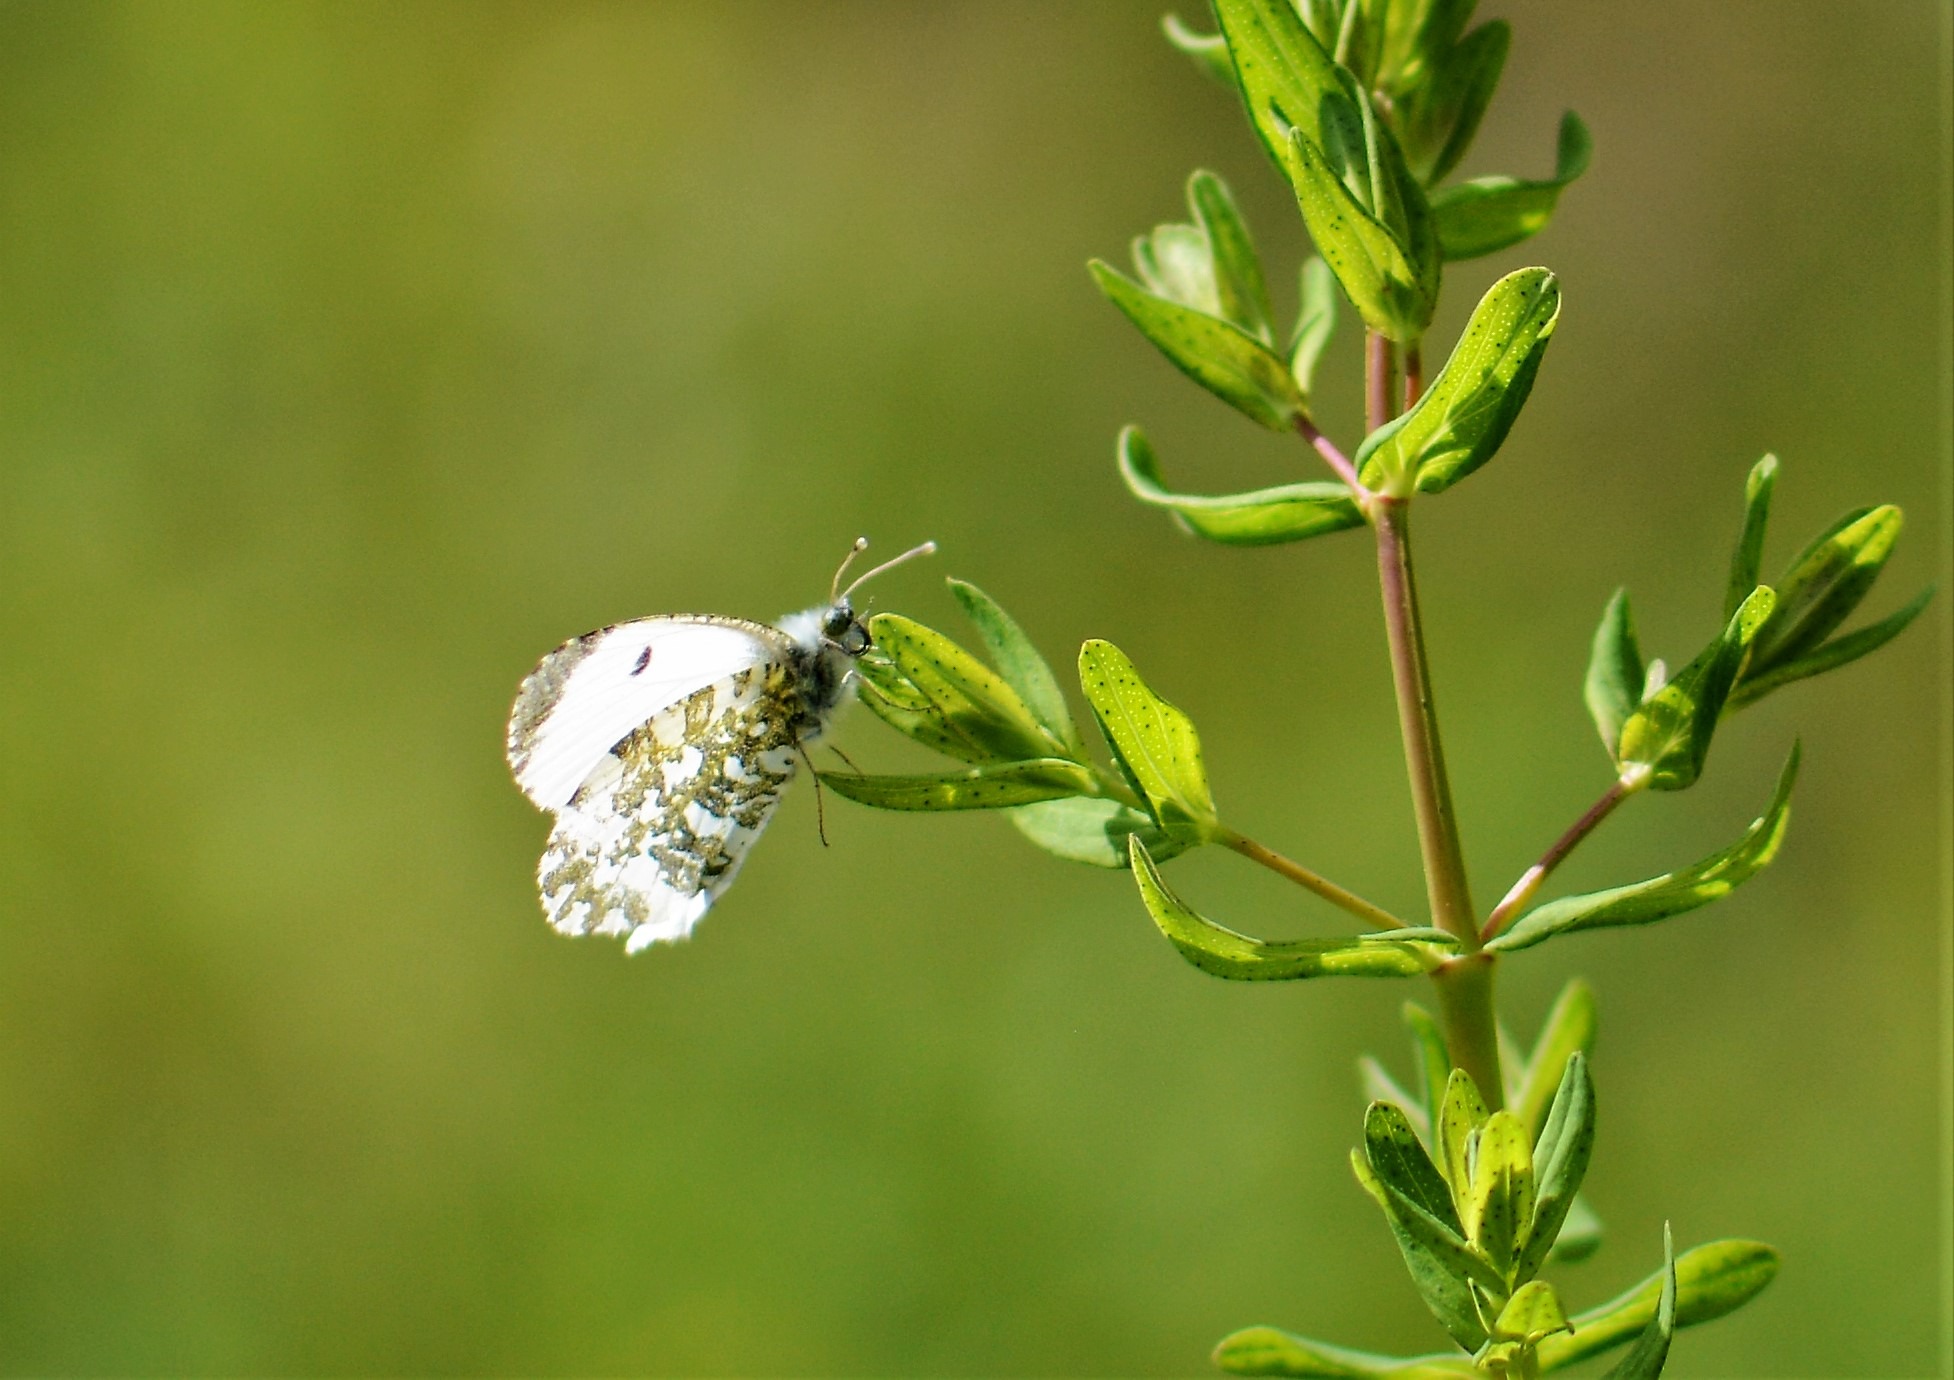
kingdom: Animalia
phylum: Arthropoda
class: Insecta
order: Lepidoptera
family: Pieridae
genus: Anthocharis
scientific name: Anthocharis cardamines
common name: Aurora
